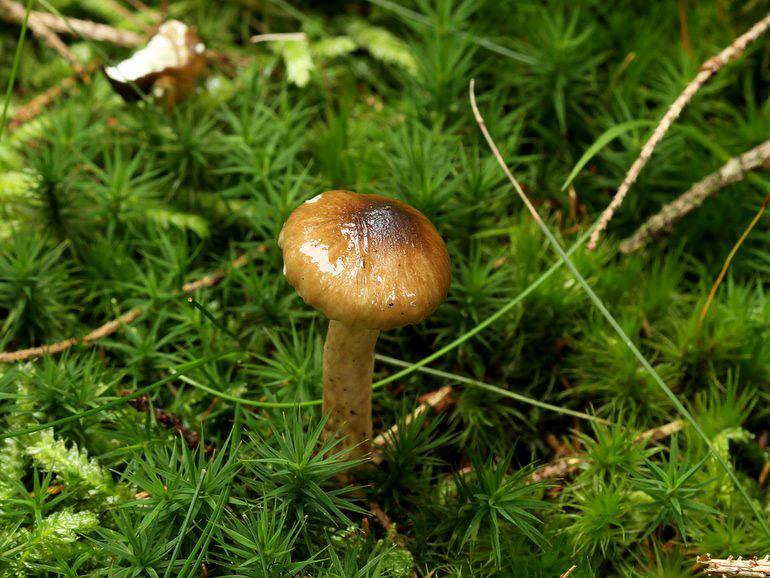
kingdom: Fungi
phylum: Basidiomycota
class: Agaricomycetes
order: Agaricales
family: Hygrophoraceae
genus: Hygrophorus
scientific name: Hygrophorus olivaceoalbus
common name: hvidbrun sneglehat
